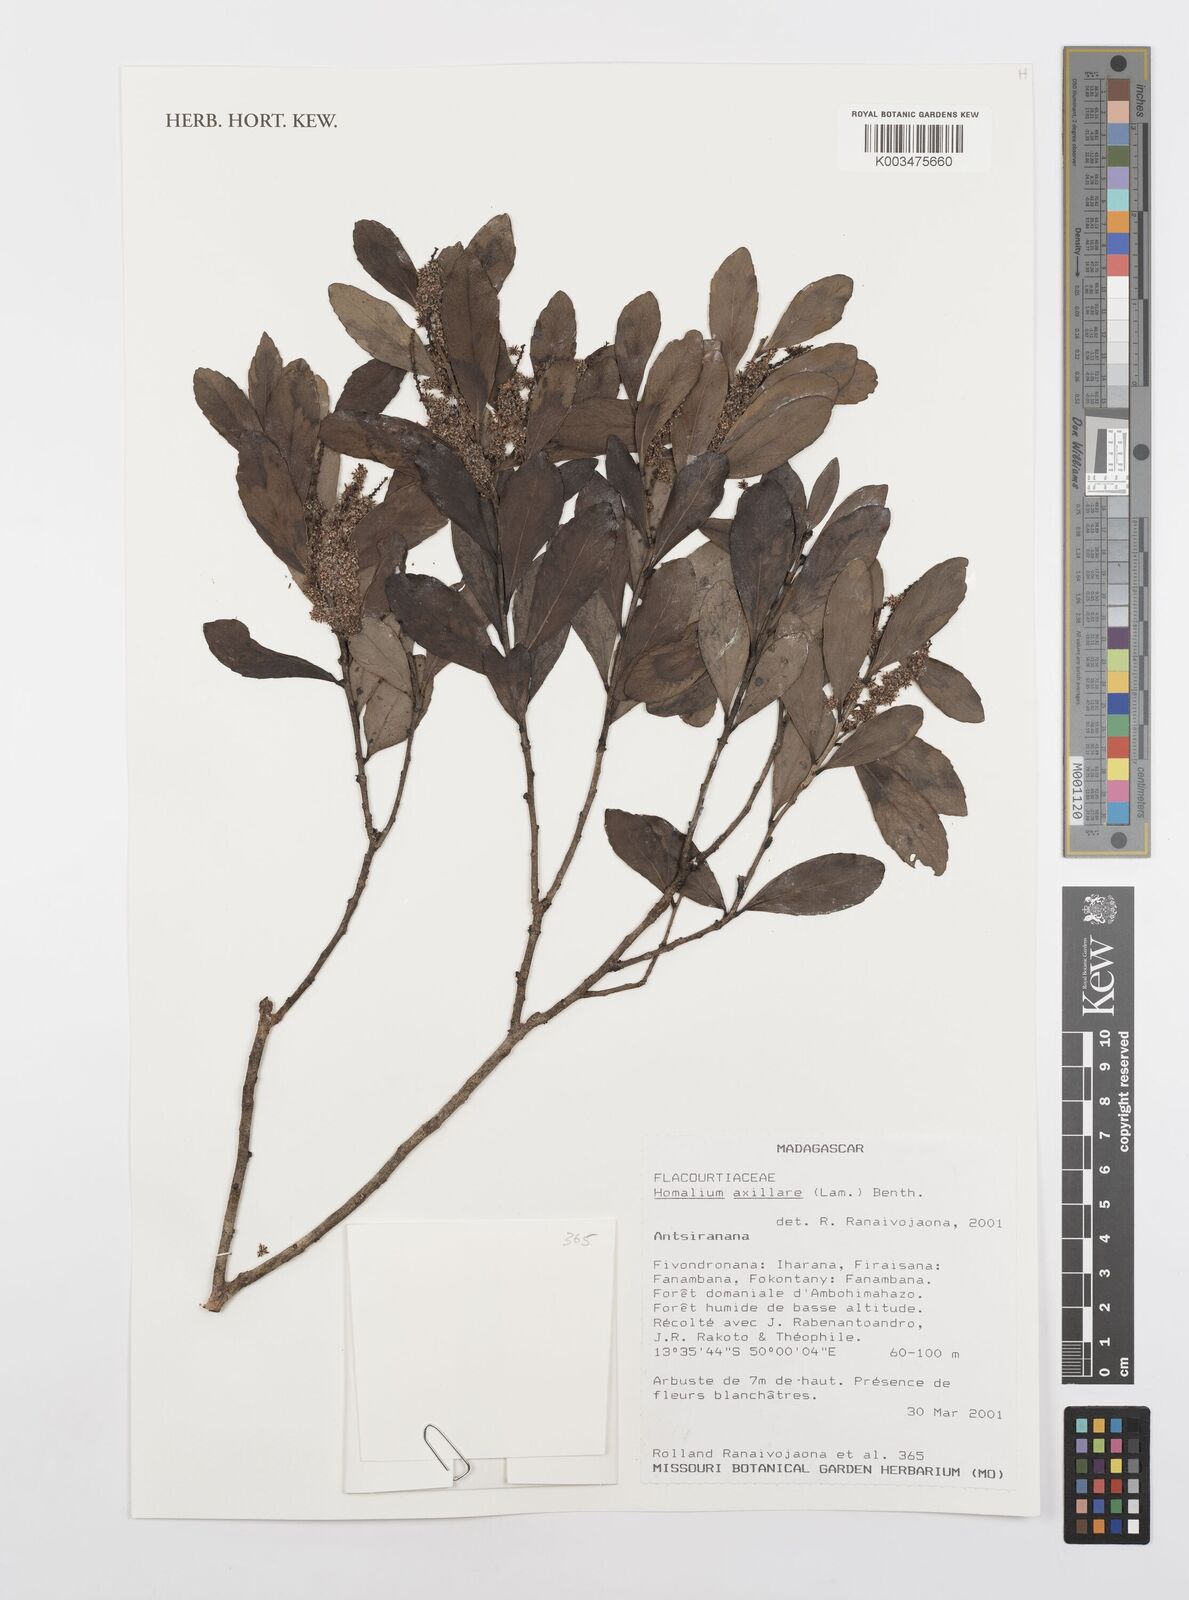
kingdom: Plantae
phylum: Tracheophyta
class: Magnoliopsida
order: Malpighiales
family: Salicaceae
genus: Homalium
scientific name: Homalium axillare
